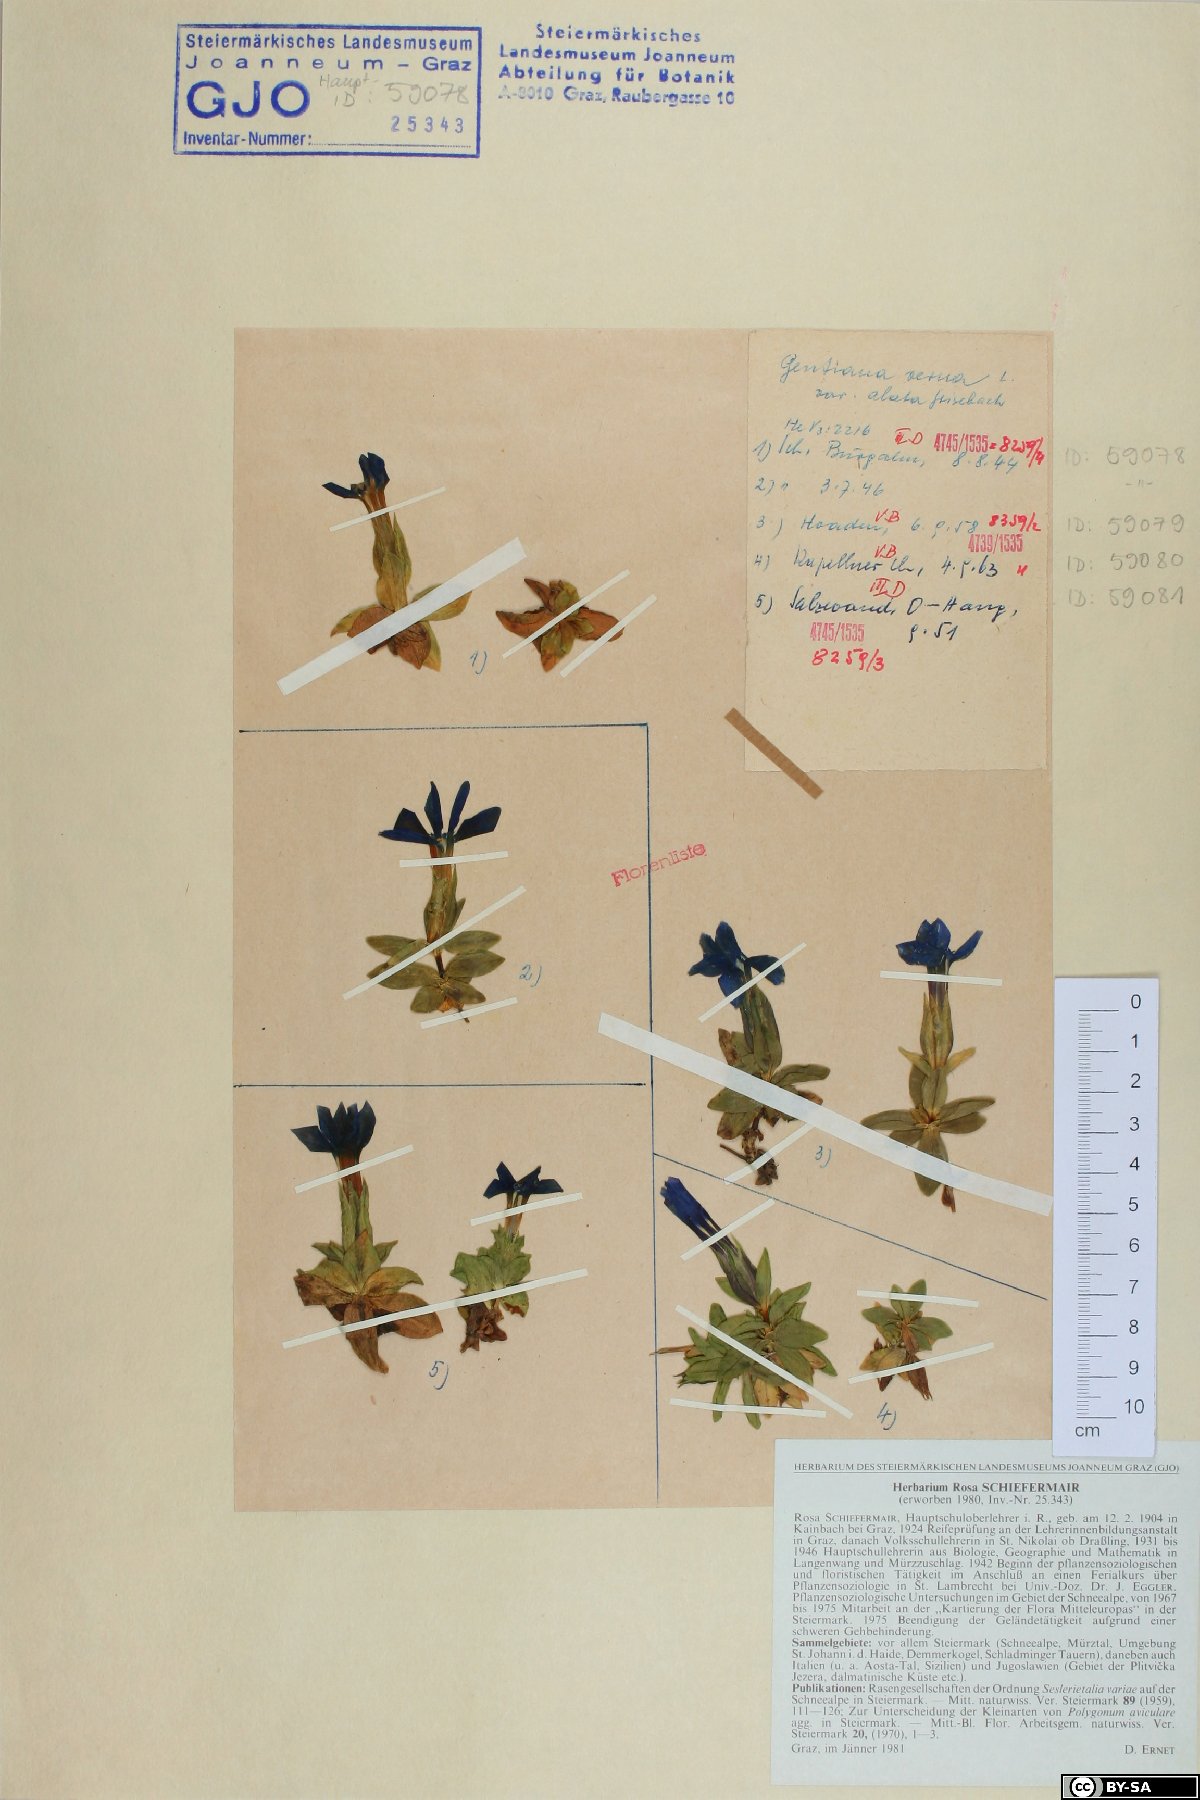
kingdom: Plantae
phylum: Tracheophyta
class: Magnoliopsida
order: Gentianales
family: Gentianaceae
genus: Gentiana
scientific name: Gentiana verna
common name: Spring gentian
